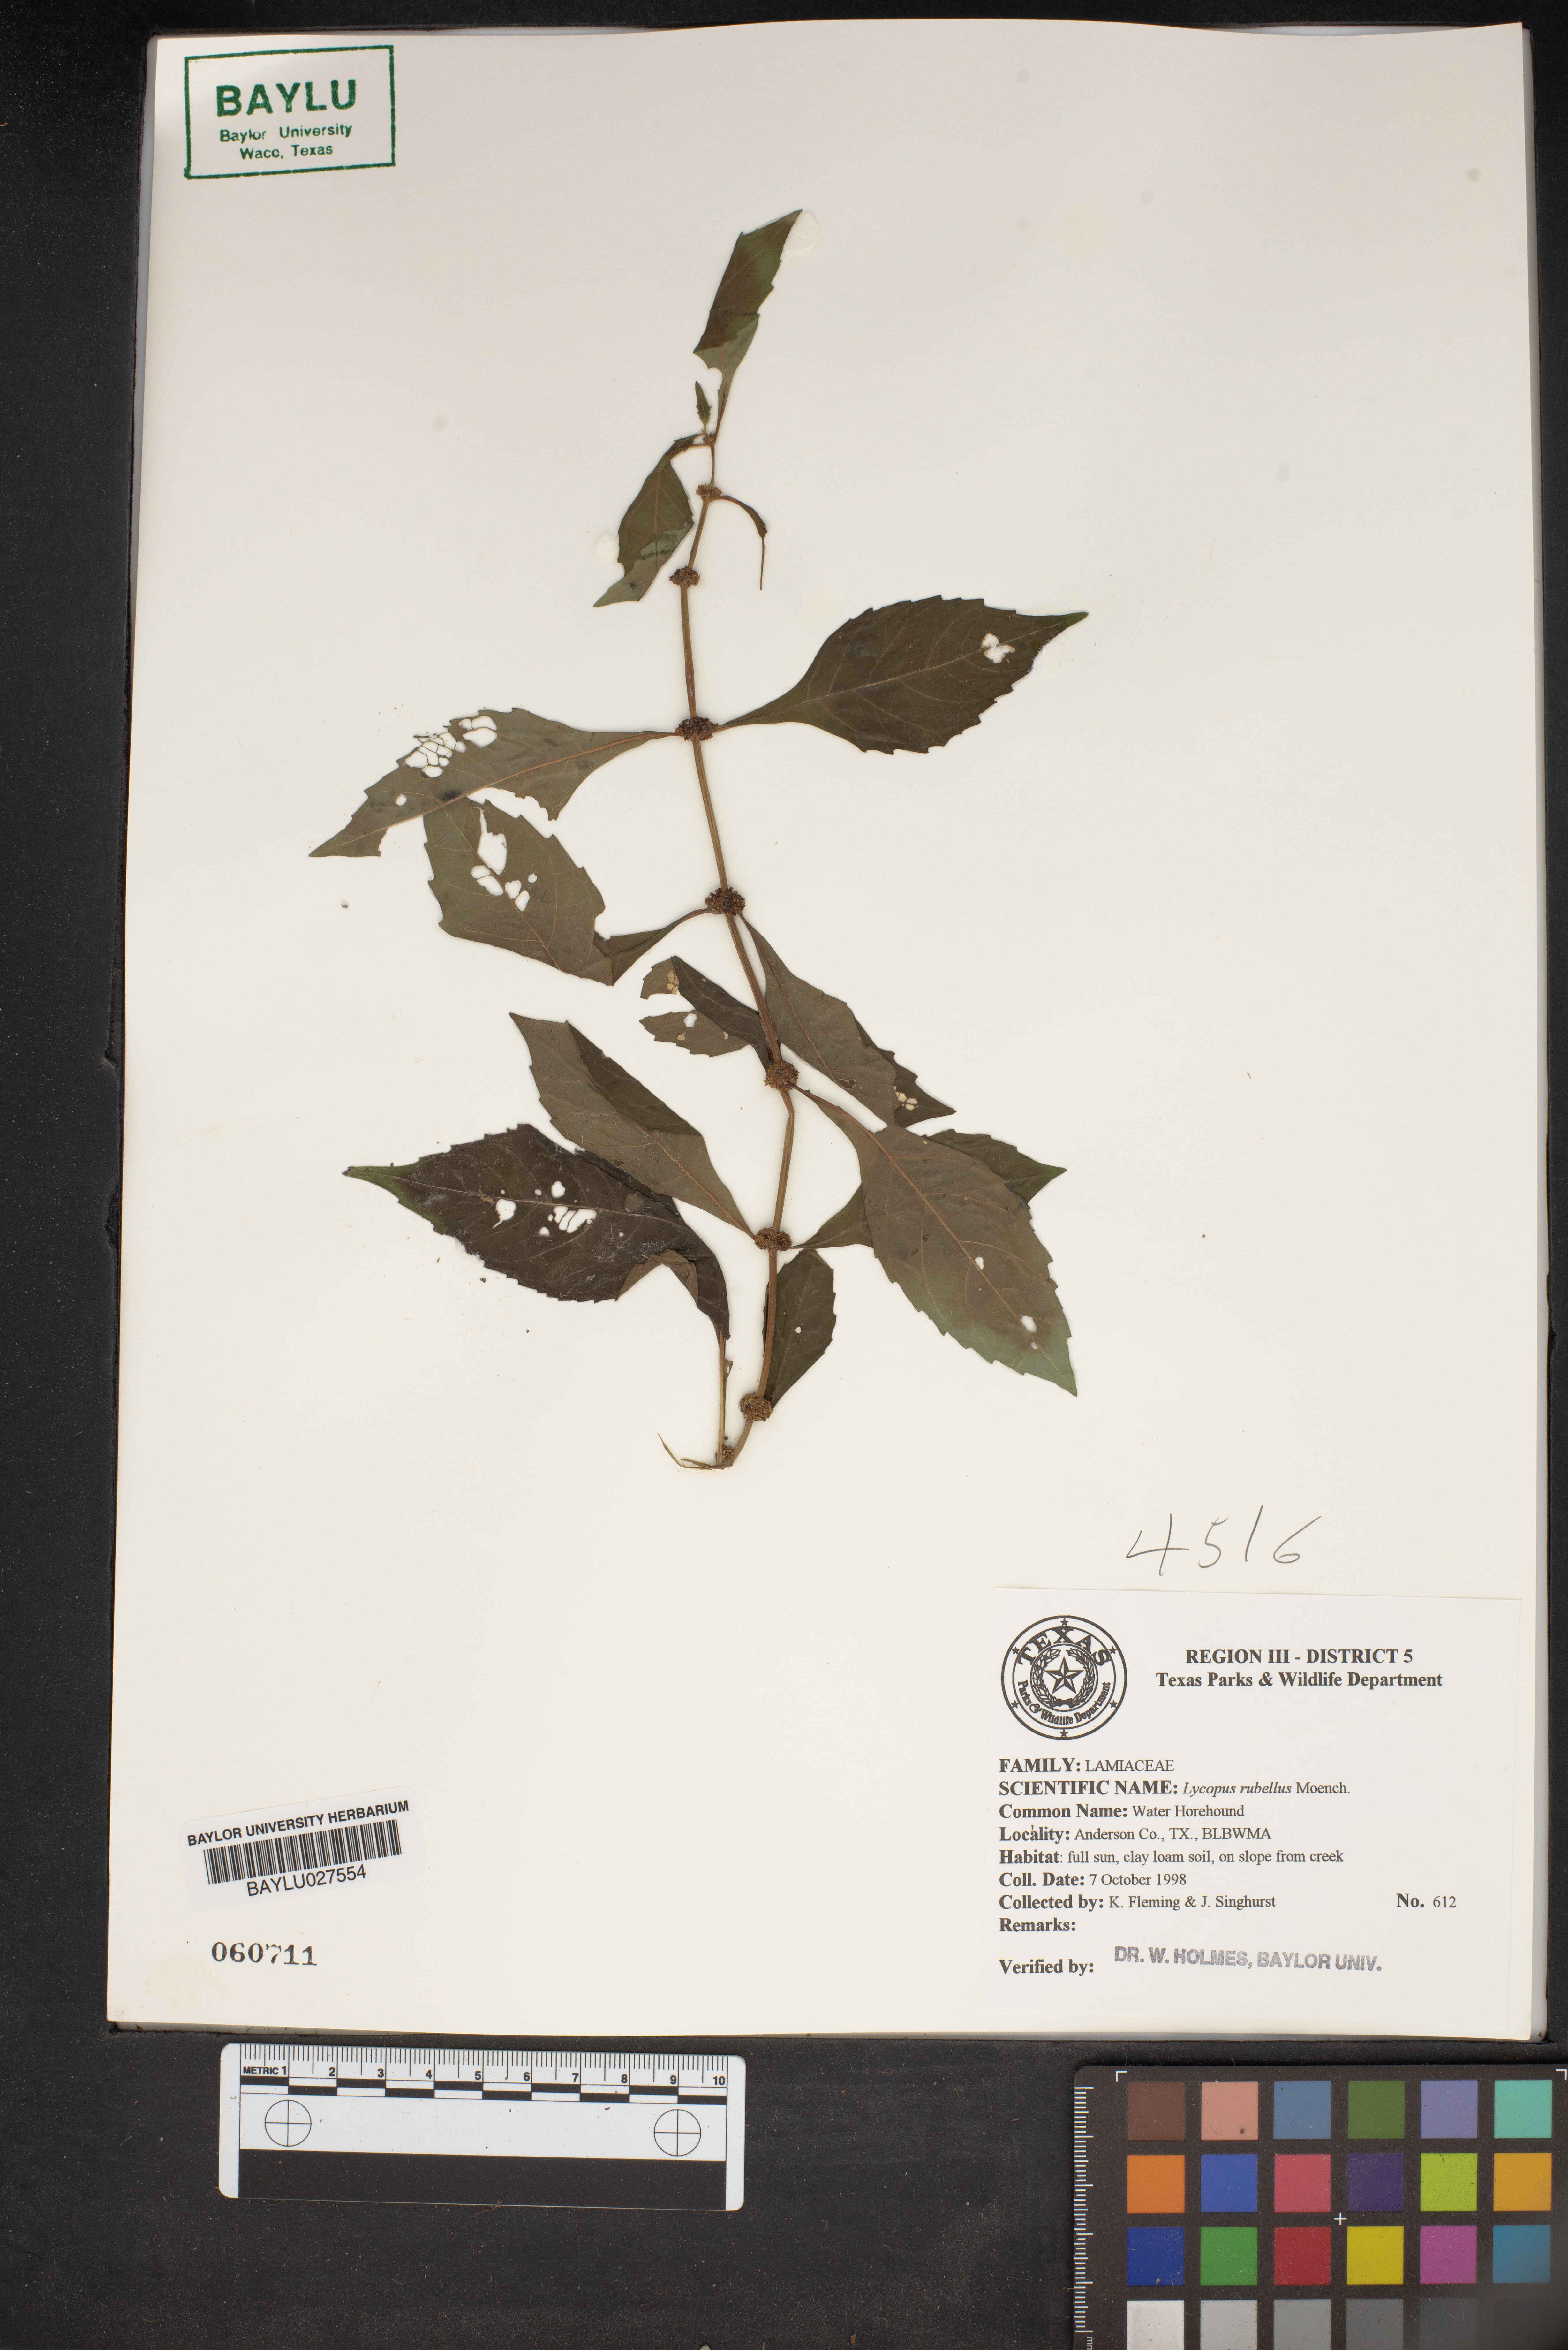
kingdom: Plantae
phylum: Tracheophyta
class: Magnoliopsida
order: Lamiales
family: Lamiaceae
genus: Lycopus
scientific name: Lycopus rubellus
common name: Stalked bugleweed
